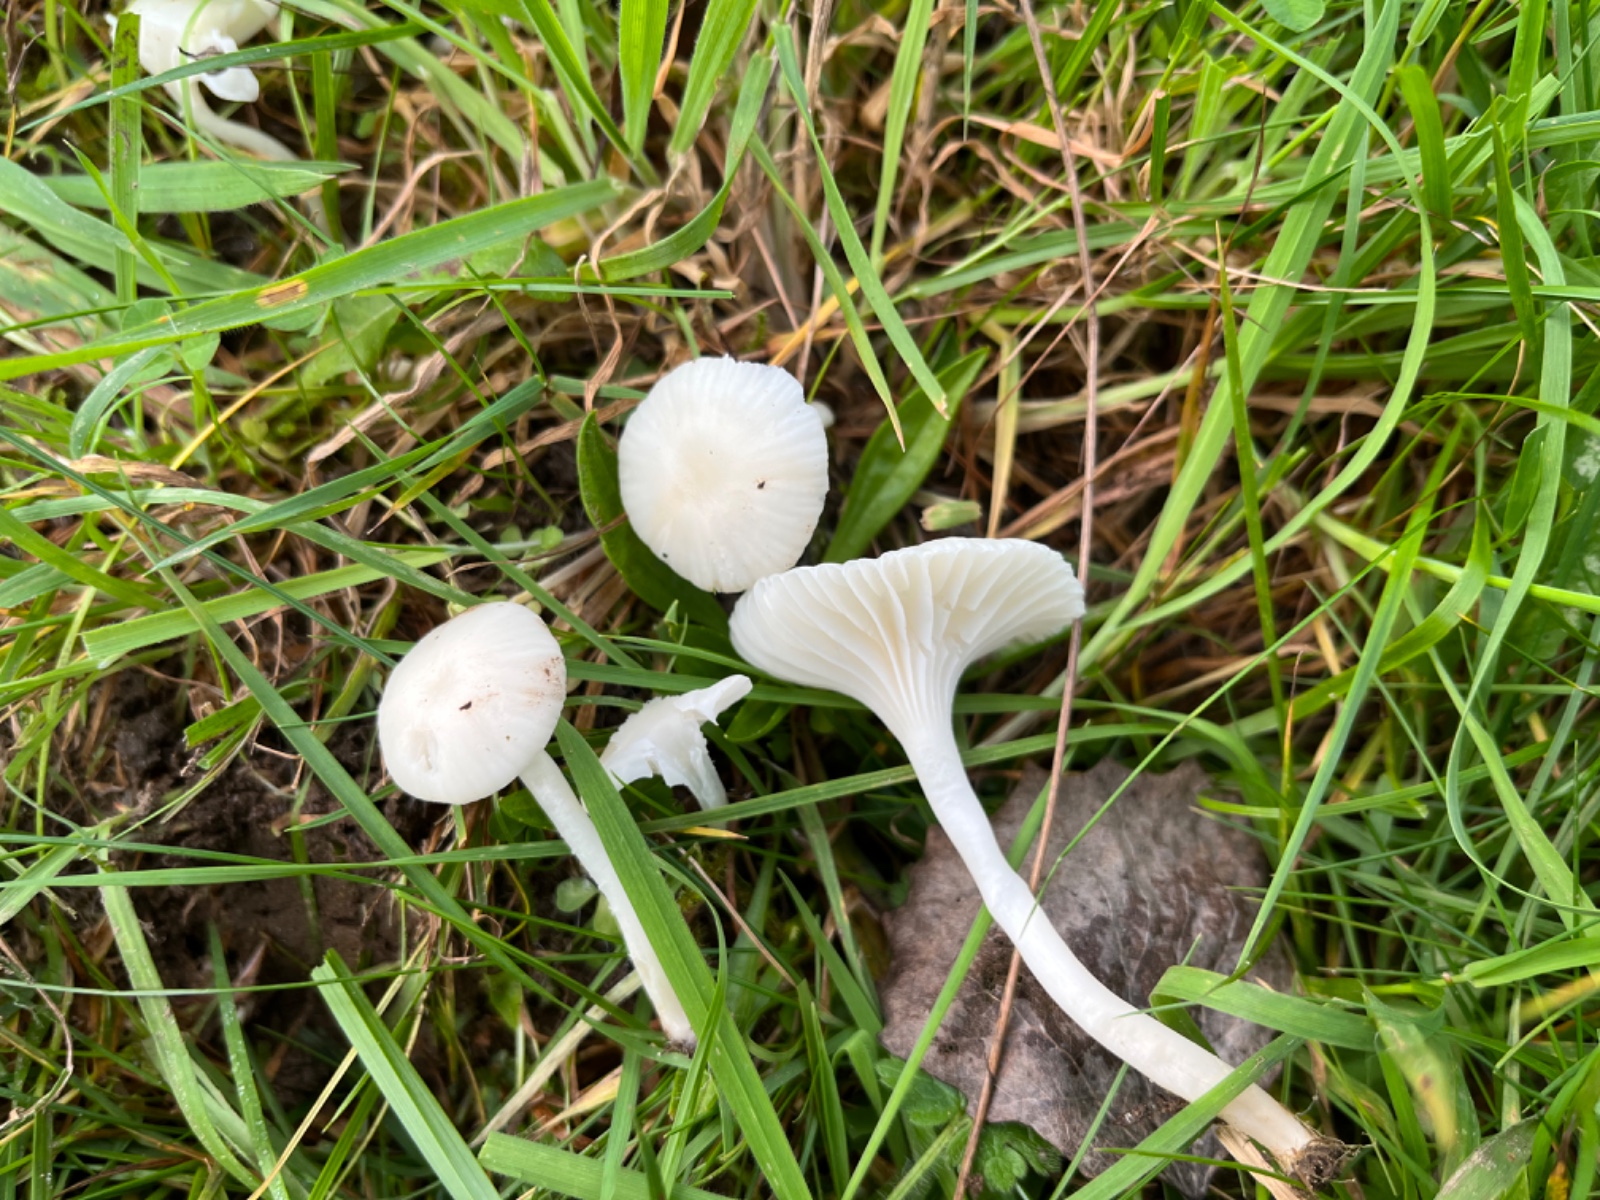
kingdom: Fungi
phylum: Basidiomycota
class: Agaricomycetes
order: Agaricales
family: Hygrophoraceae
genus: Cuphophyllus
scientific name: Cuphophyllus virgineus
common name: snehvid vokshat
